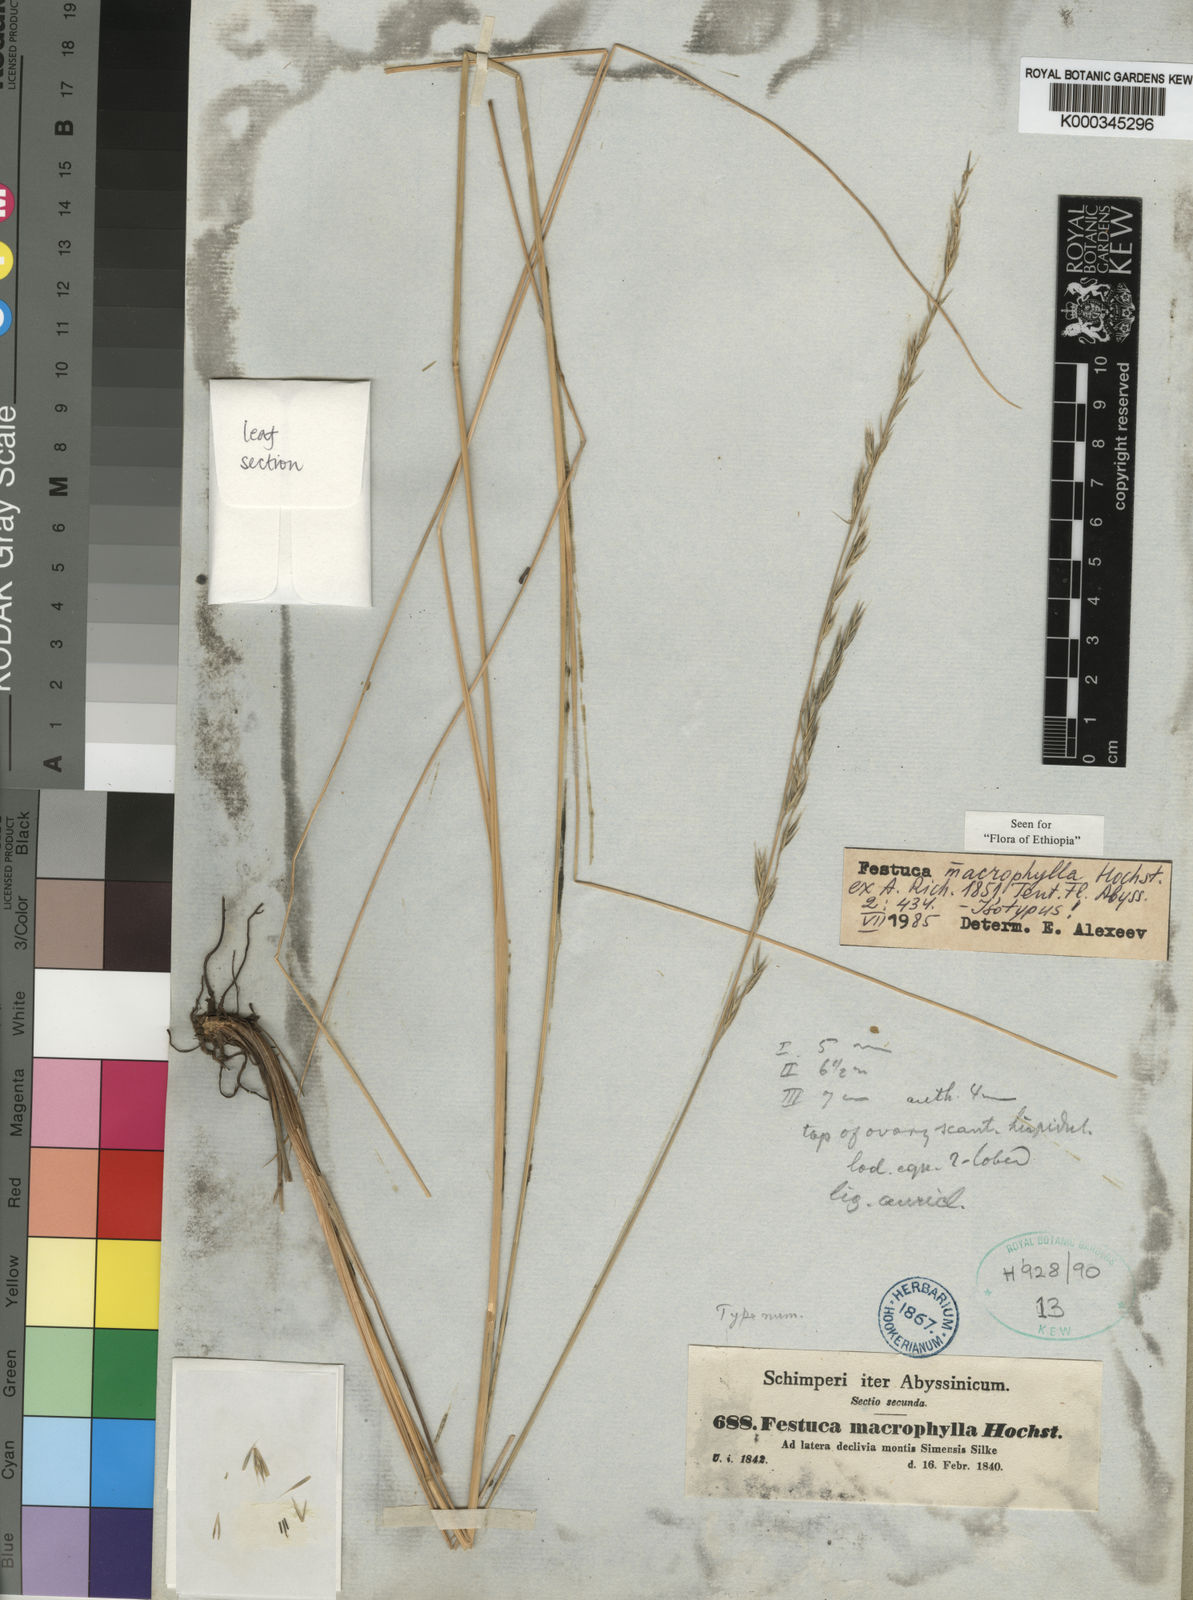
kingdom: Plantae
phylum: Tracheophyta
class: Liliopsida
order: Poales
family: Poaceae
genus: Festuca
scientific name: Festuca macrophylla
